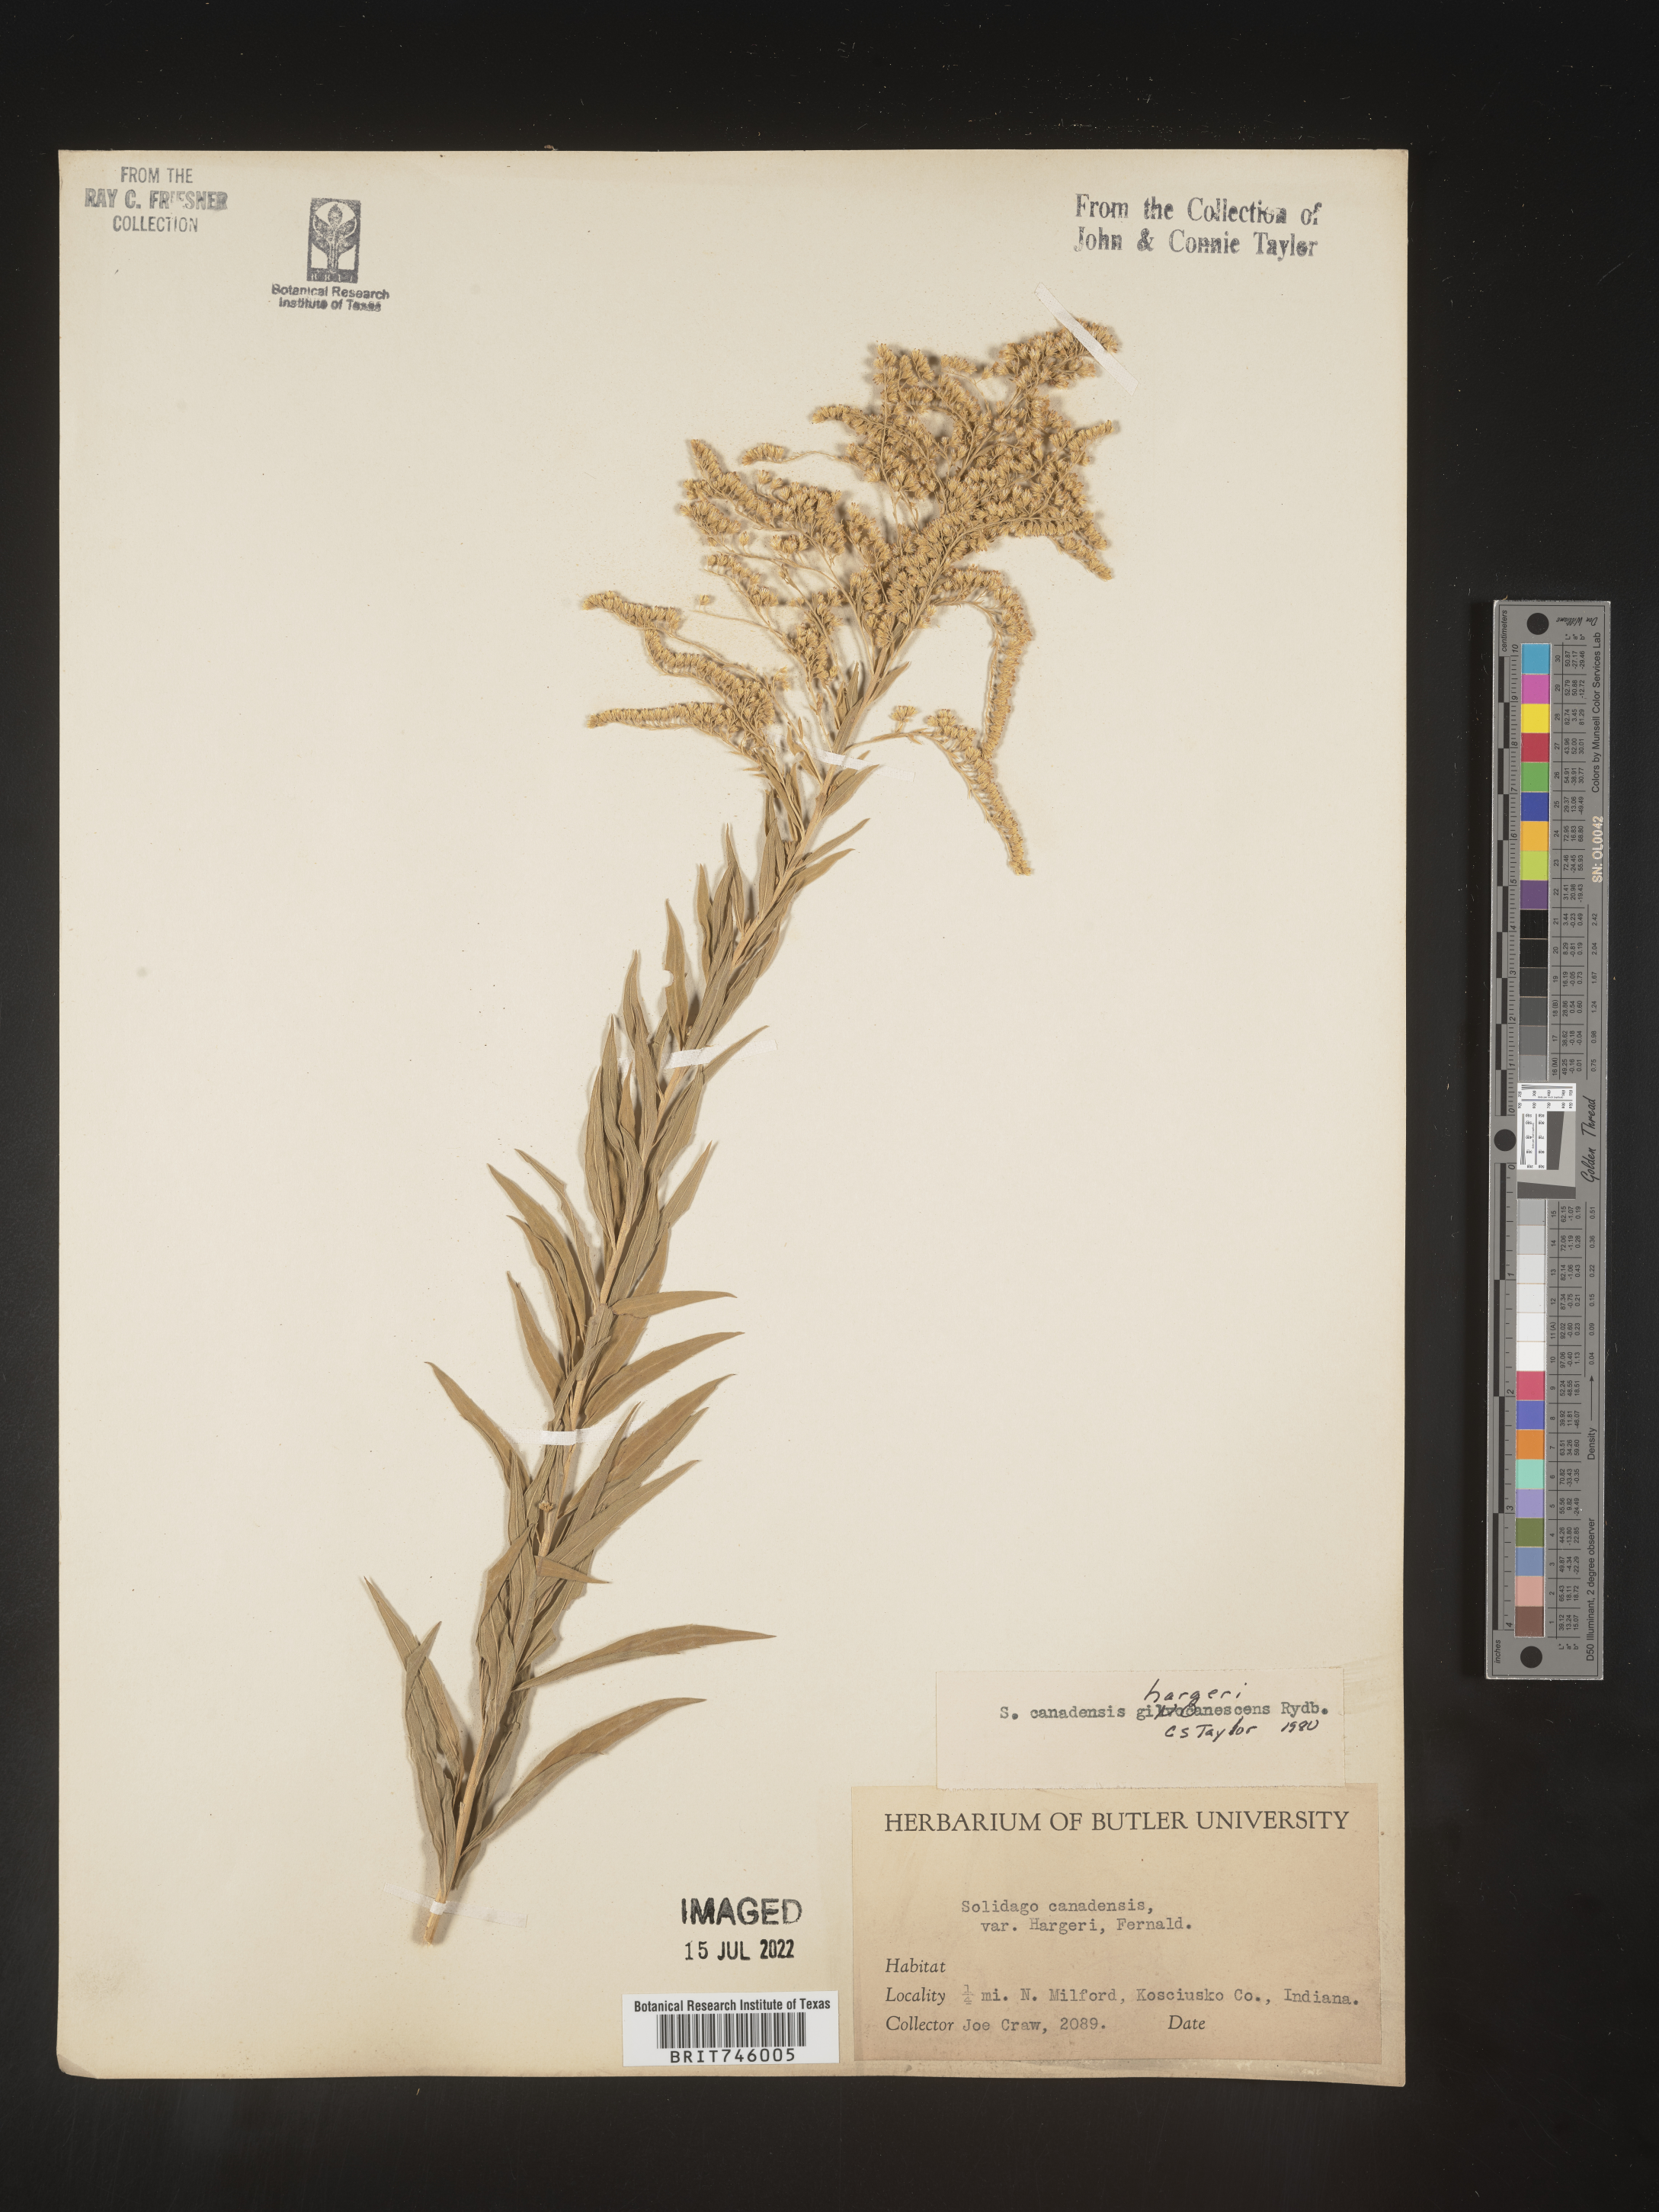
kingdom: Plantae
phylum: Tracheophyta
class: Magnoliopsida
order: Asterales
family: Asteraceae
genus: Solidago
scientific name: Solidago canadensis
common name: Canada goldenrod
